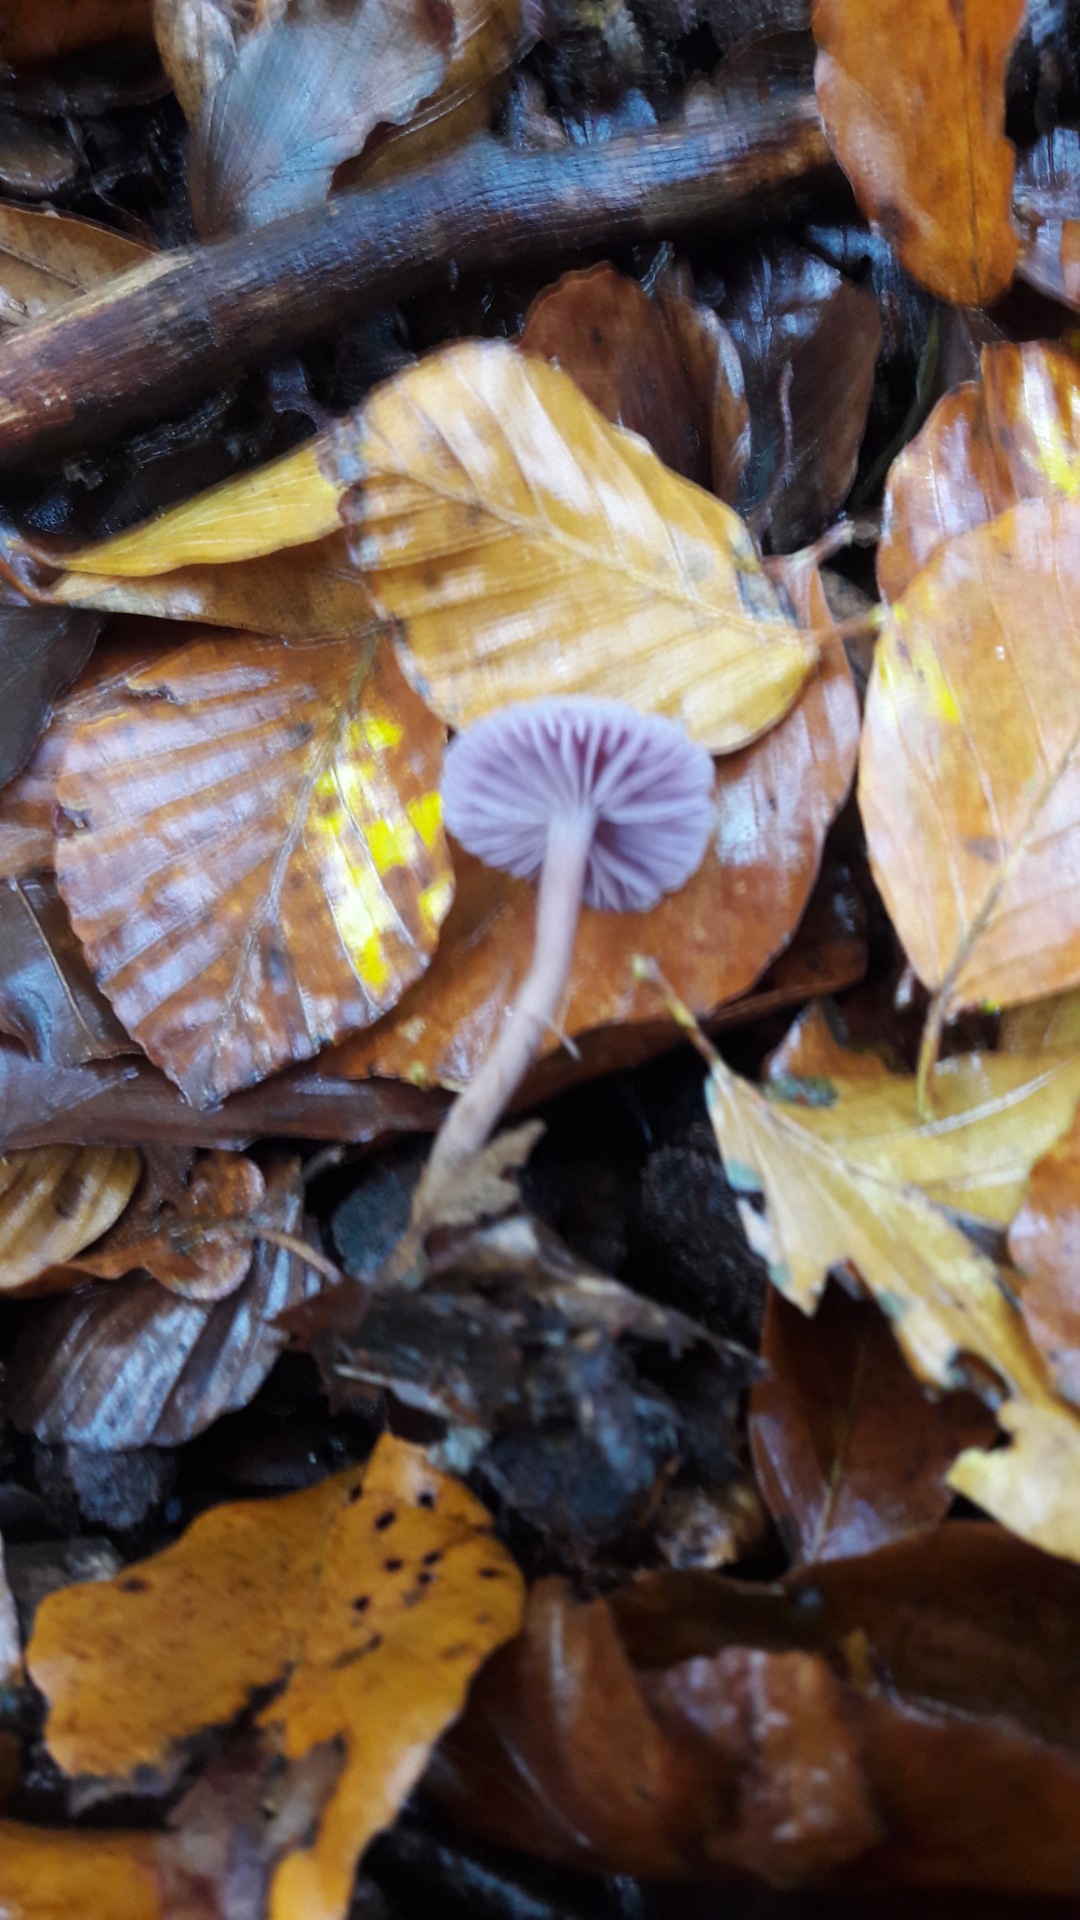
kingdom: Fungi
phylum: Basidiomycota
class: Agaricomycetes
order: Agaricales
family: Hydnangiaceae
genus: Laccaria
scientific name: Laccaria amethystina
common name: violet ametysthat
